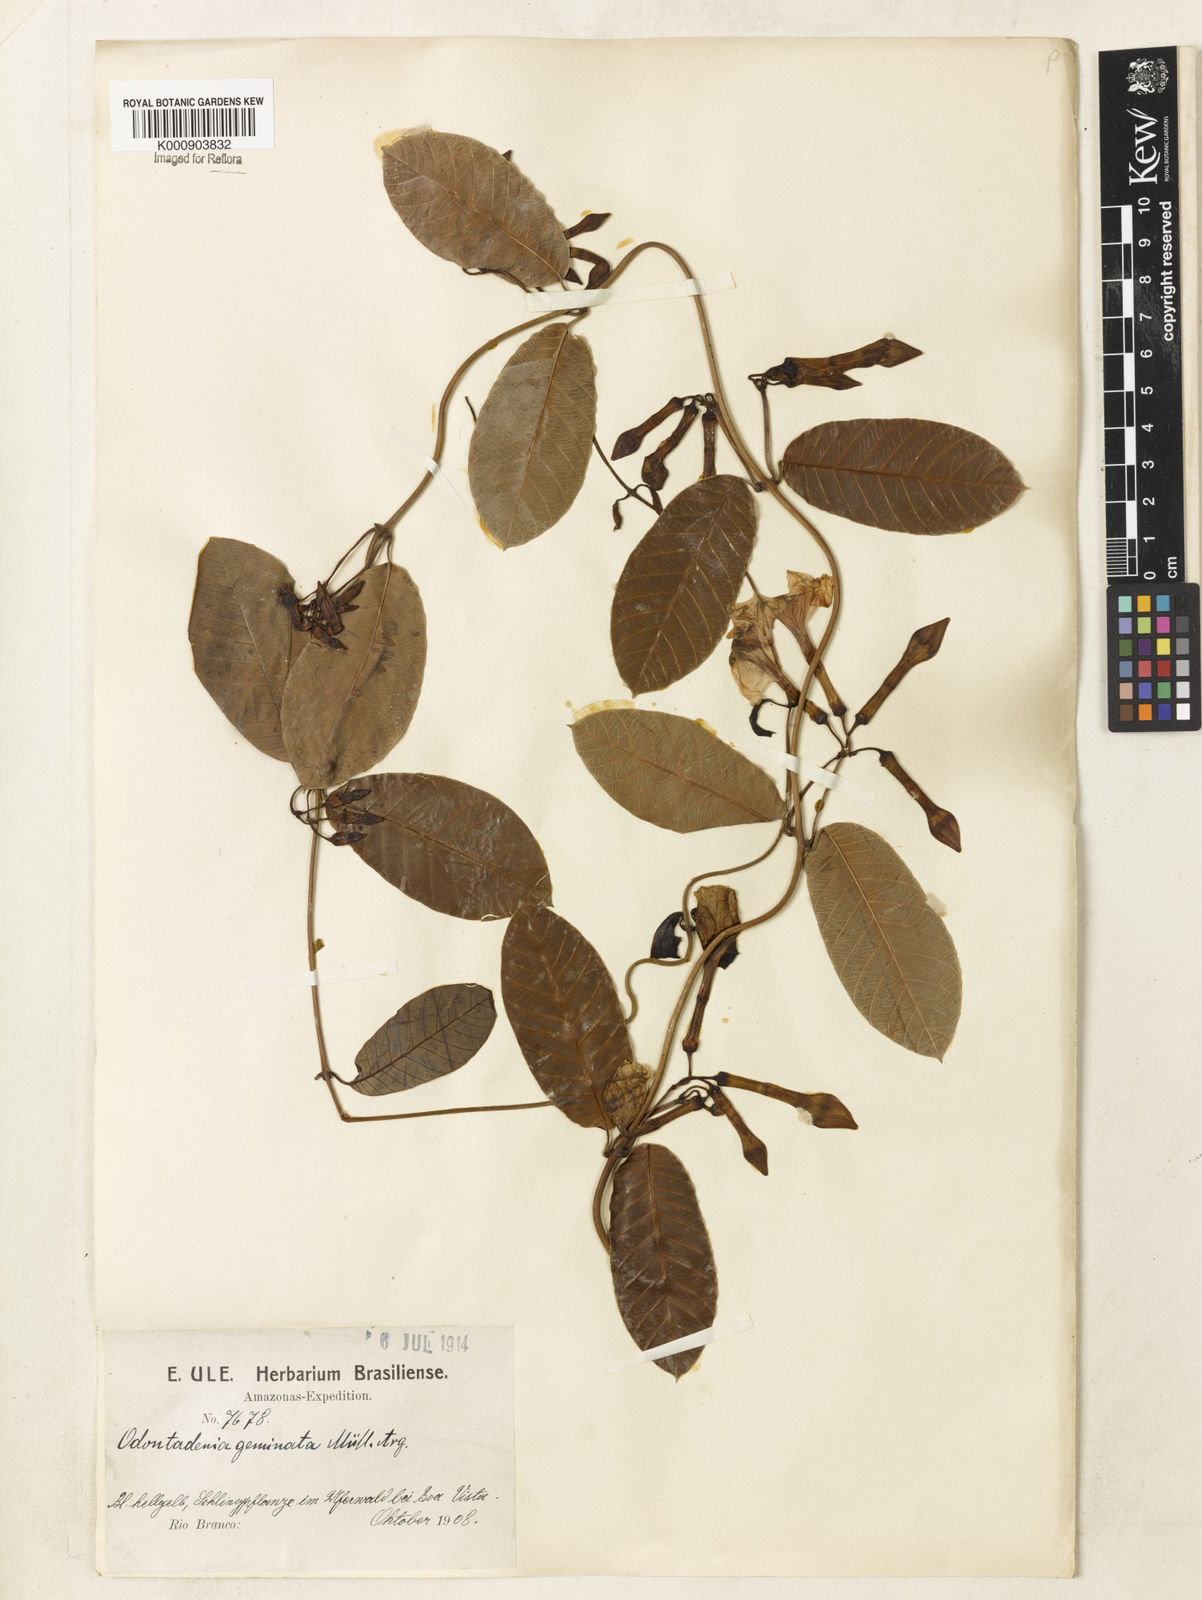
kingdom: Plantae
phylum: Tracheophyta
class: Magnoliopsida
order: Gentianales
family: Apocynaceae
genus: Odontadenia
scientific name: Odontadenia
